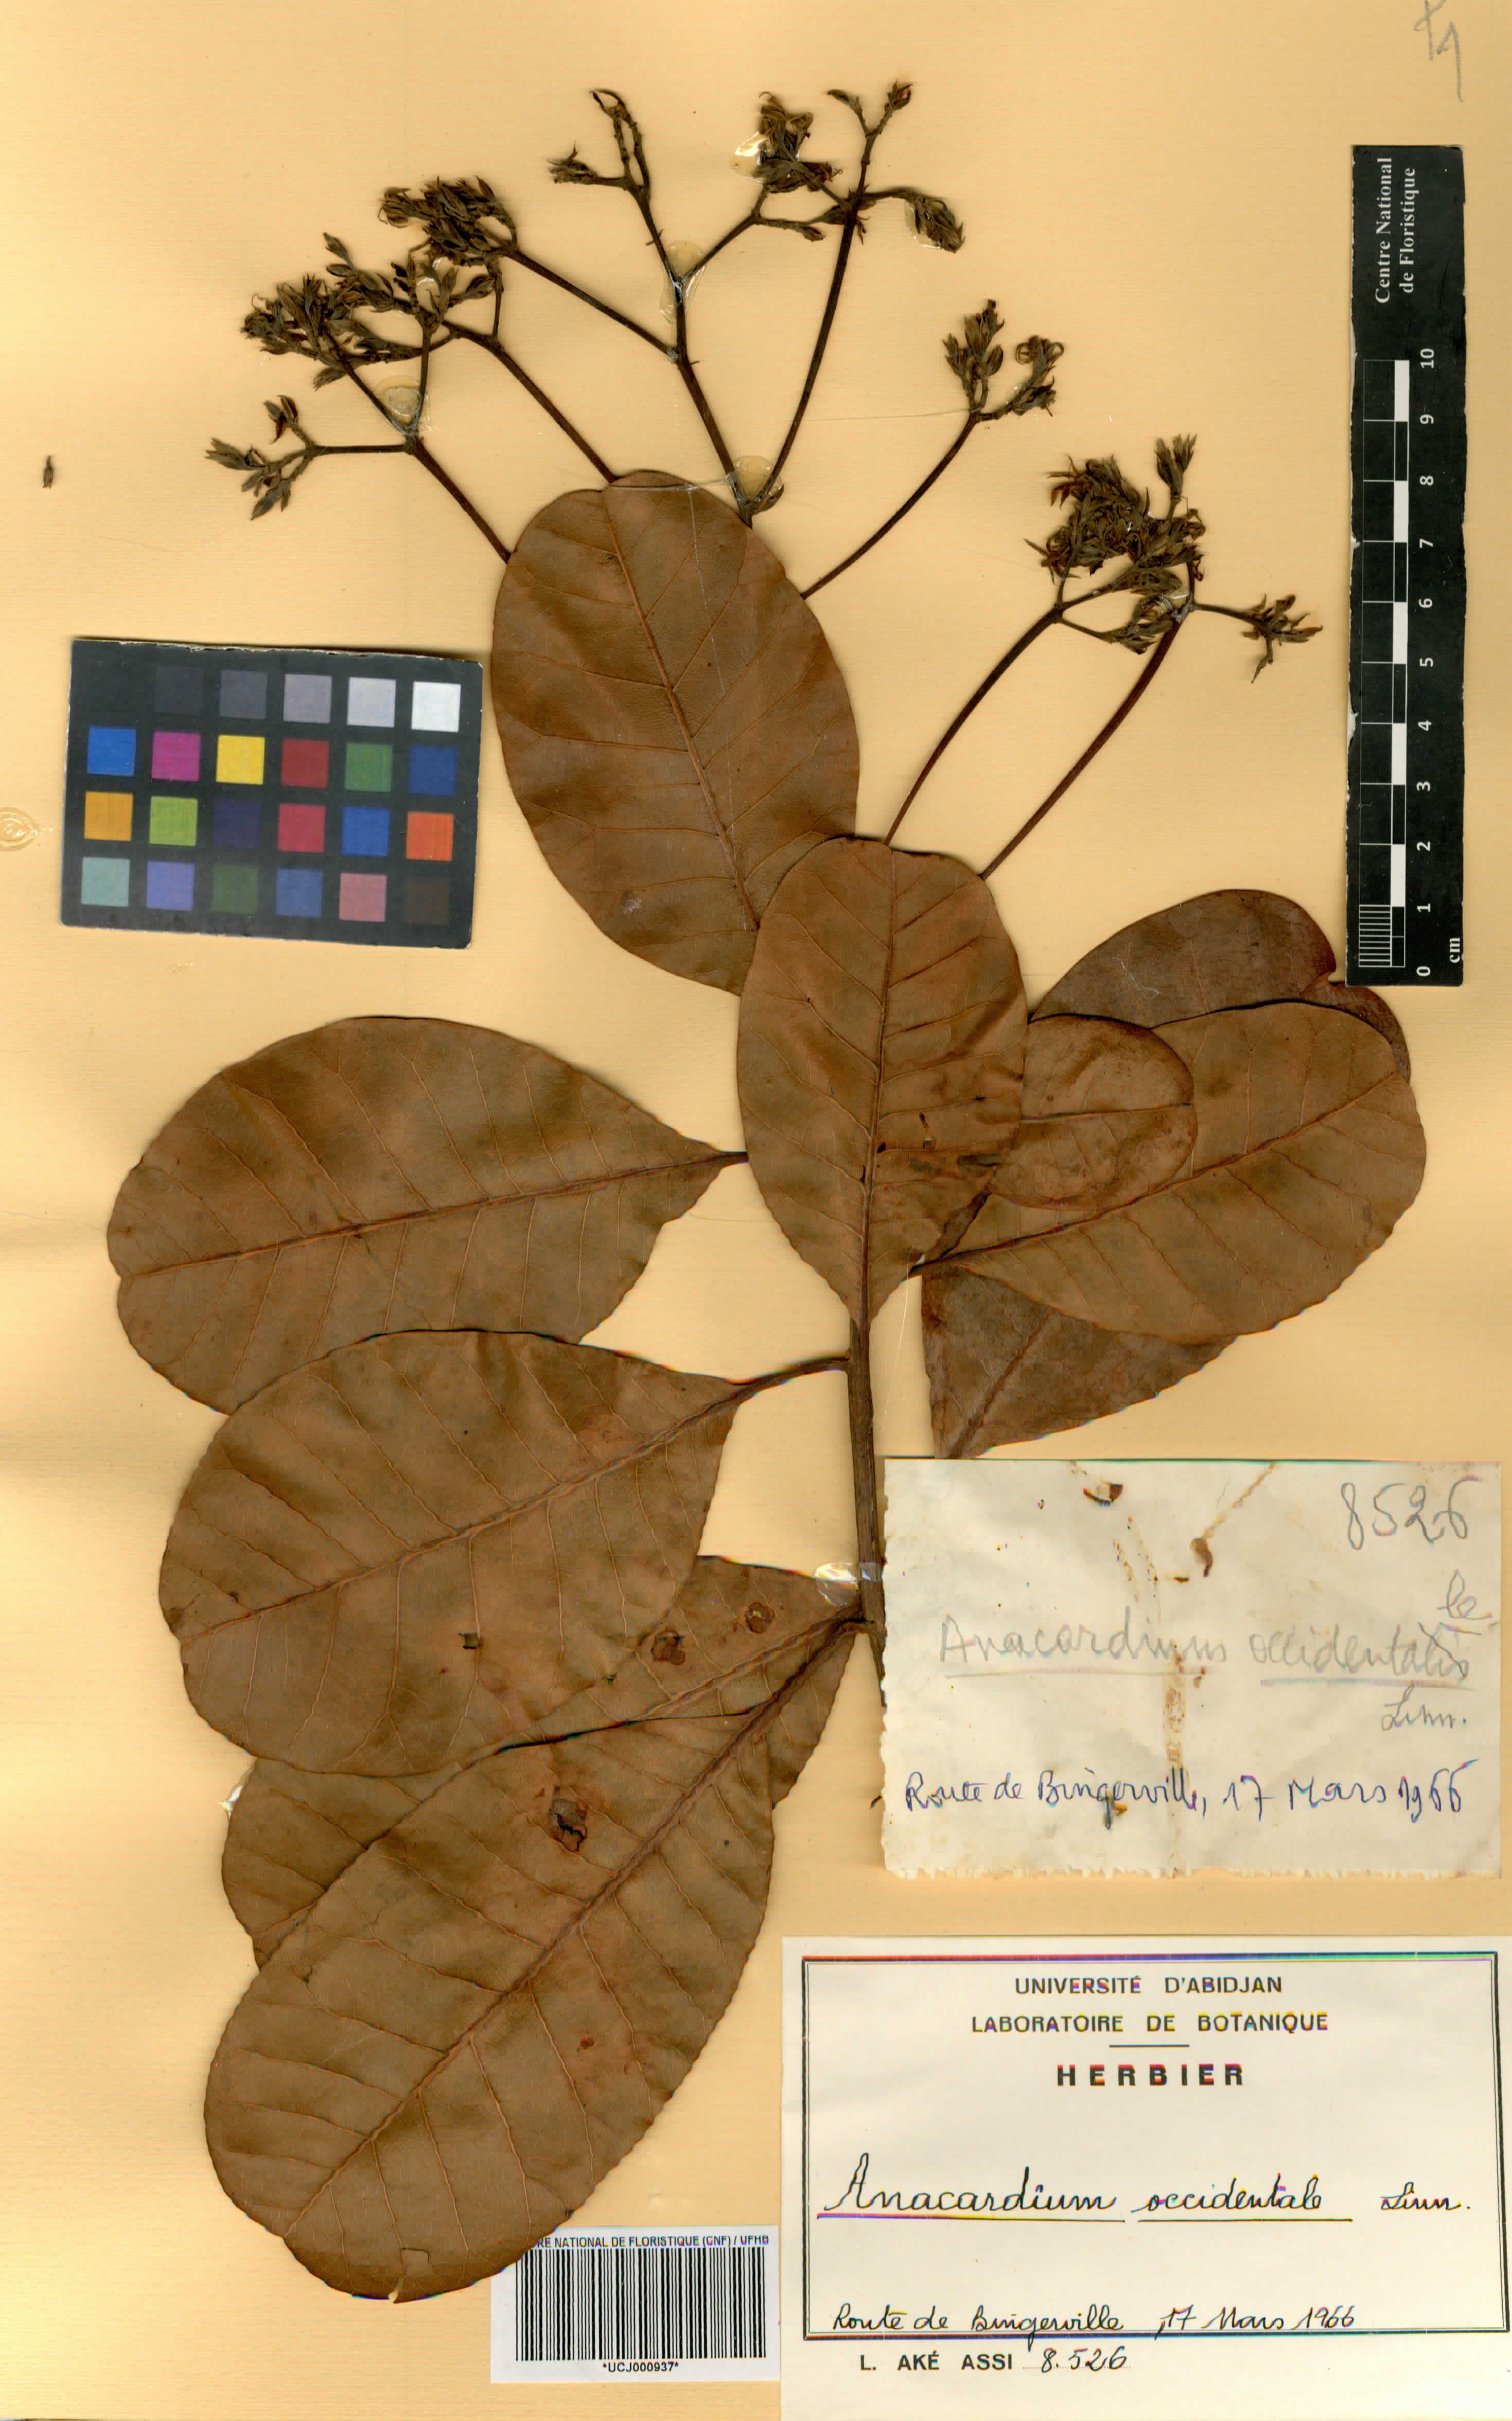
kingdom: Plantae
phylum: Tracheophyta
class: Magnoliopsida
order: Sapindales
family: Anacardiaceae
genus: Anacardium
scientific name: Anacardium occidentale
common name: Cashew
